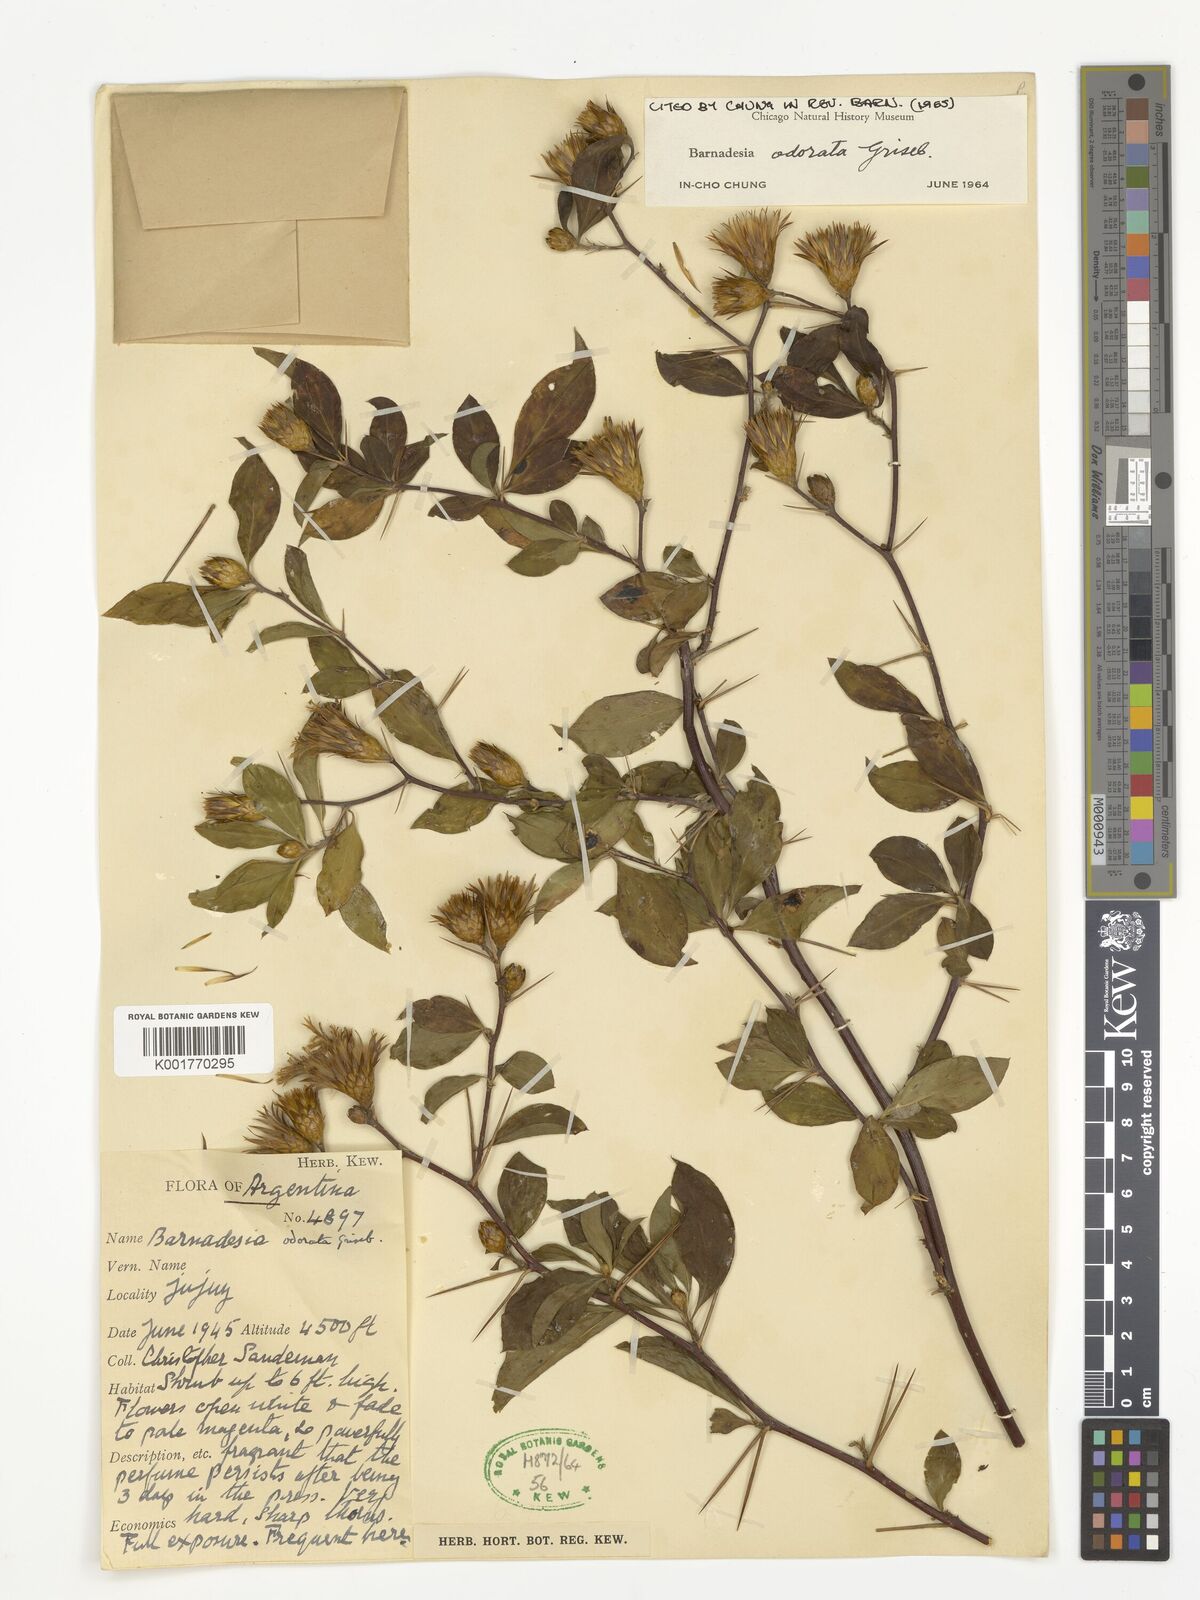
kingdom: Plantae
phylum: Tracheophyta
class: Magnoliopsida
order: Asterales
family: Asteraceae
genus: Barnadesia
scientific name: Barnadesia odorata
